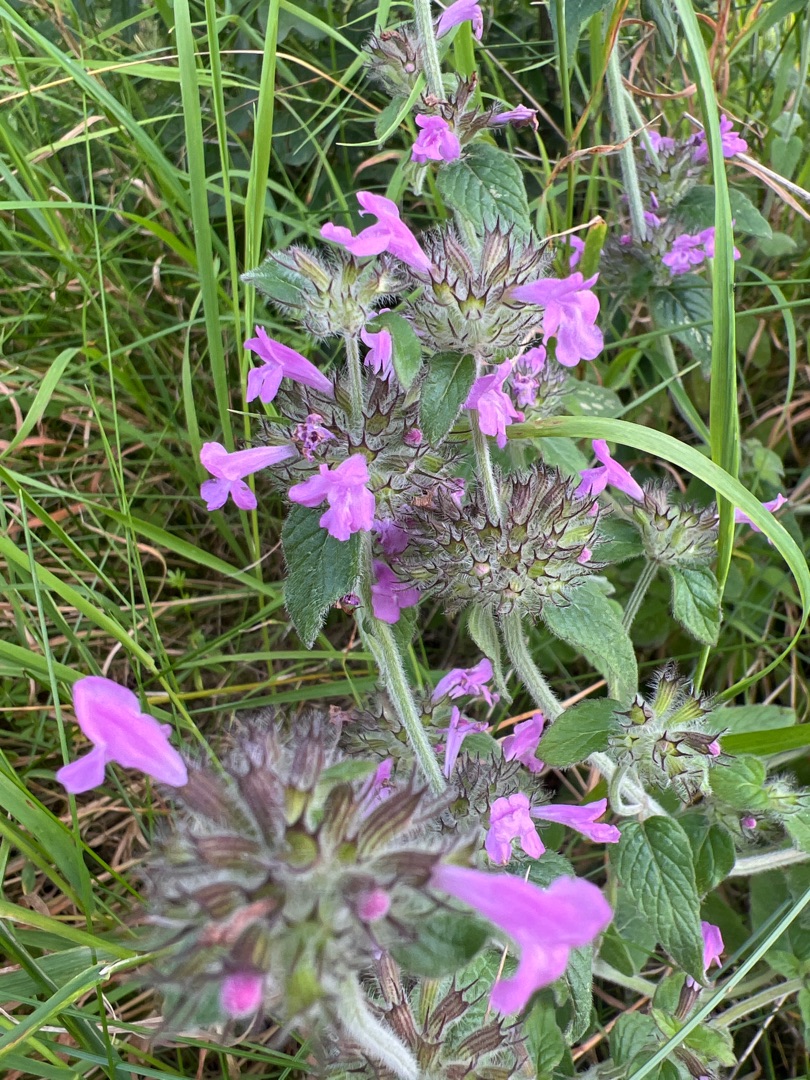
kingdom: Plantae
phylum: Tracheophyta
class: Magnoliopsida
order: Lamiales
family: Lamiaceae
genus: Clinopodium
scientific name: Clinopodium vulgare
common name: Kransbørste
